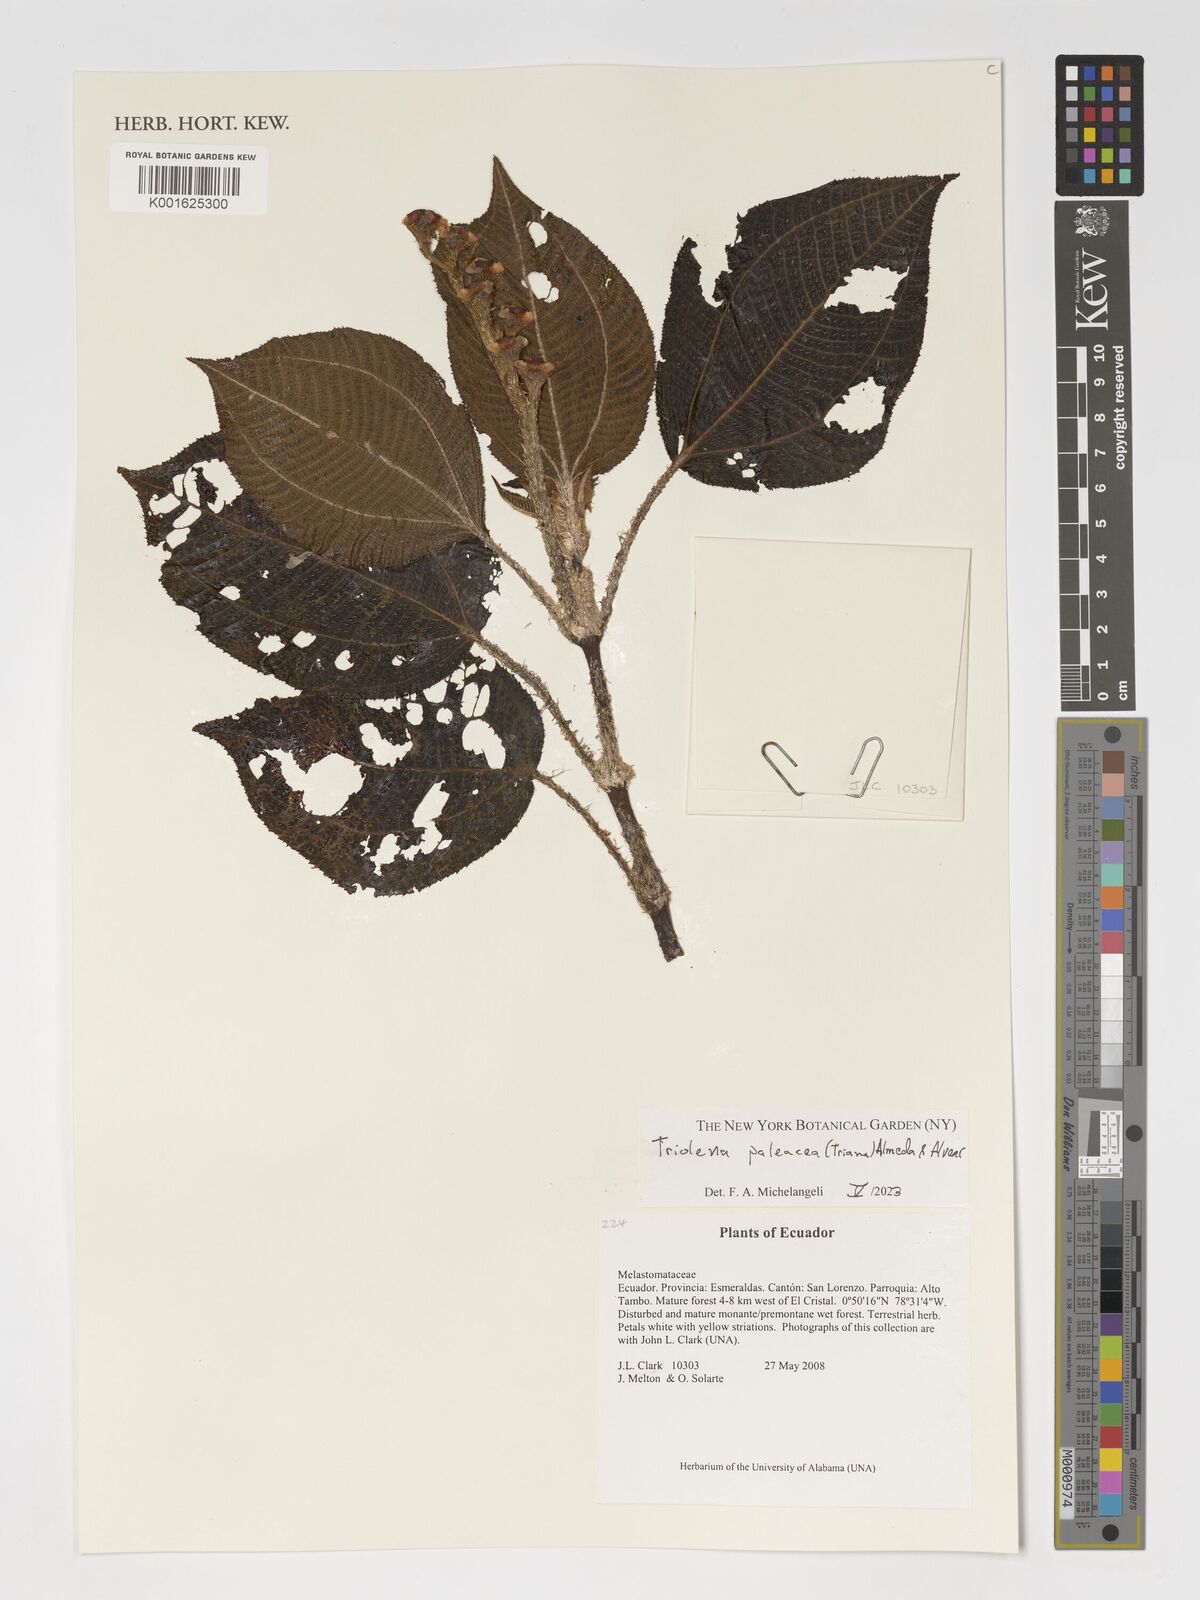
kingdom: Plantae
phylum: Tracheophyta
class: Magnoliopsida
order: Myrtales
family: Melastomataceae
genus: Andesanthus
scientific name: Andesanthus paleaceus
